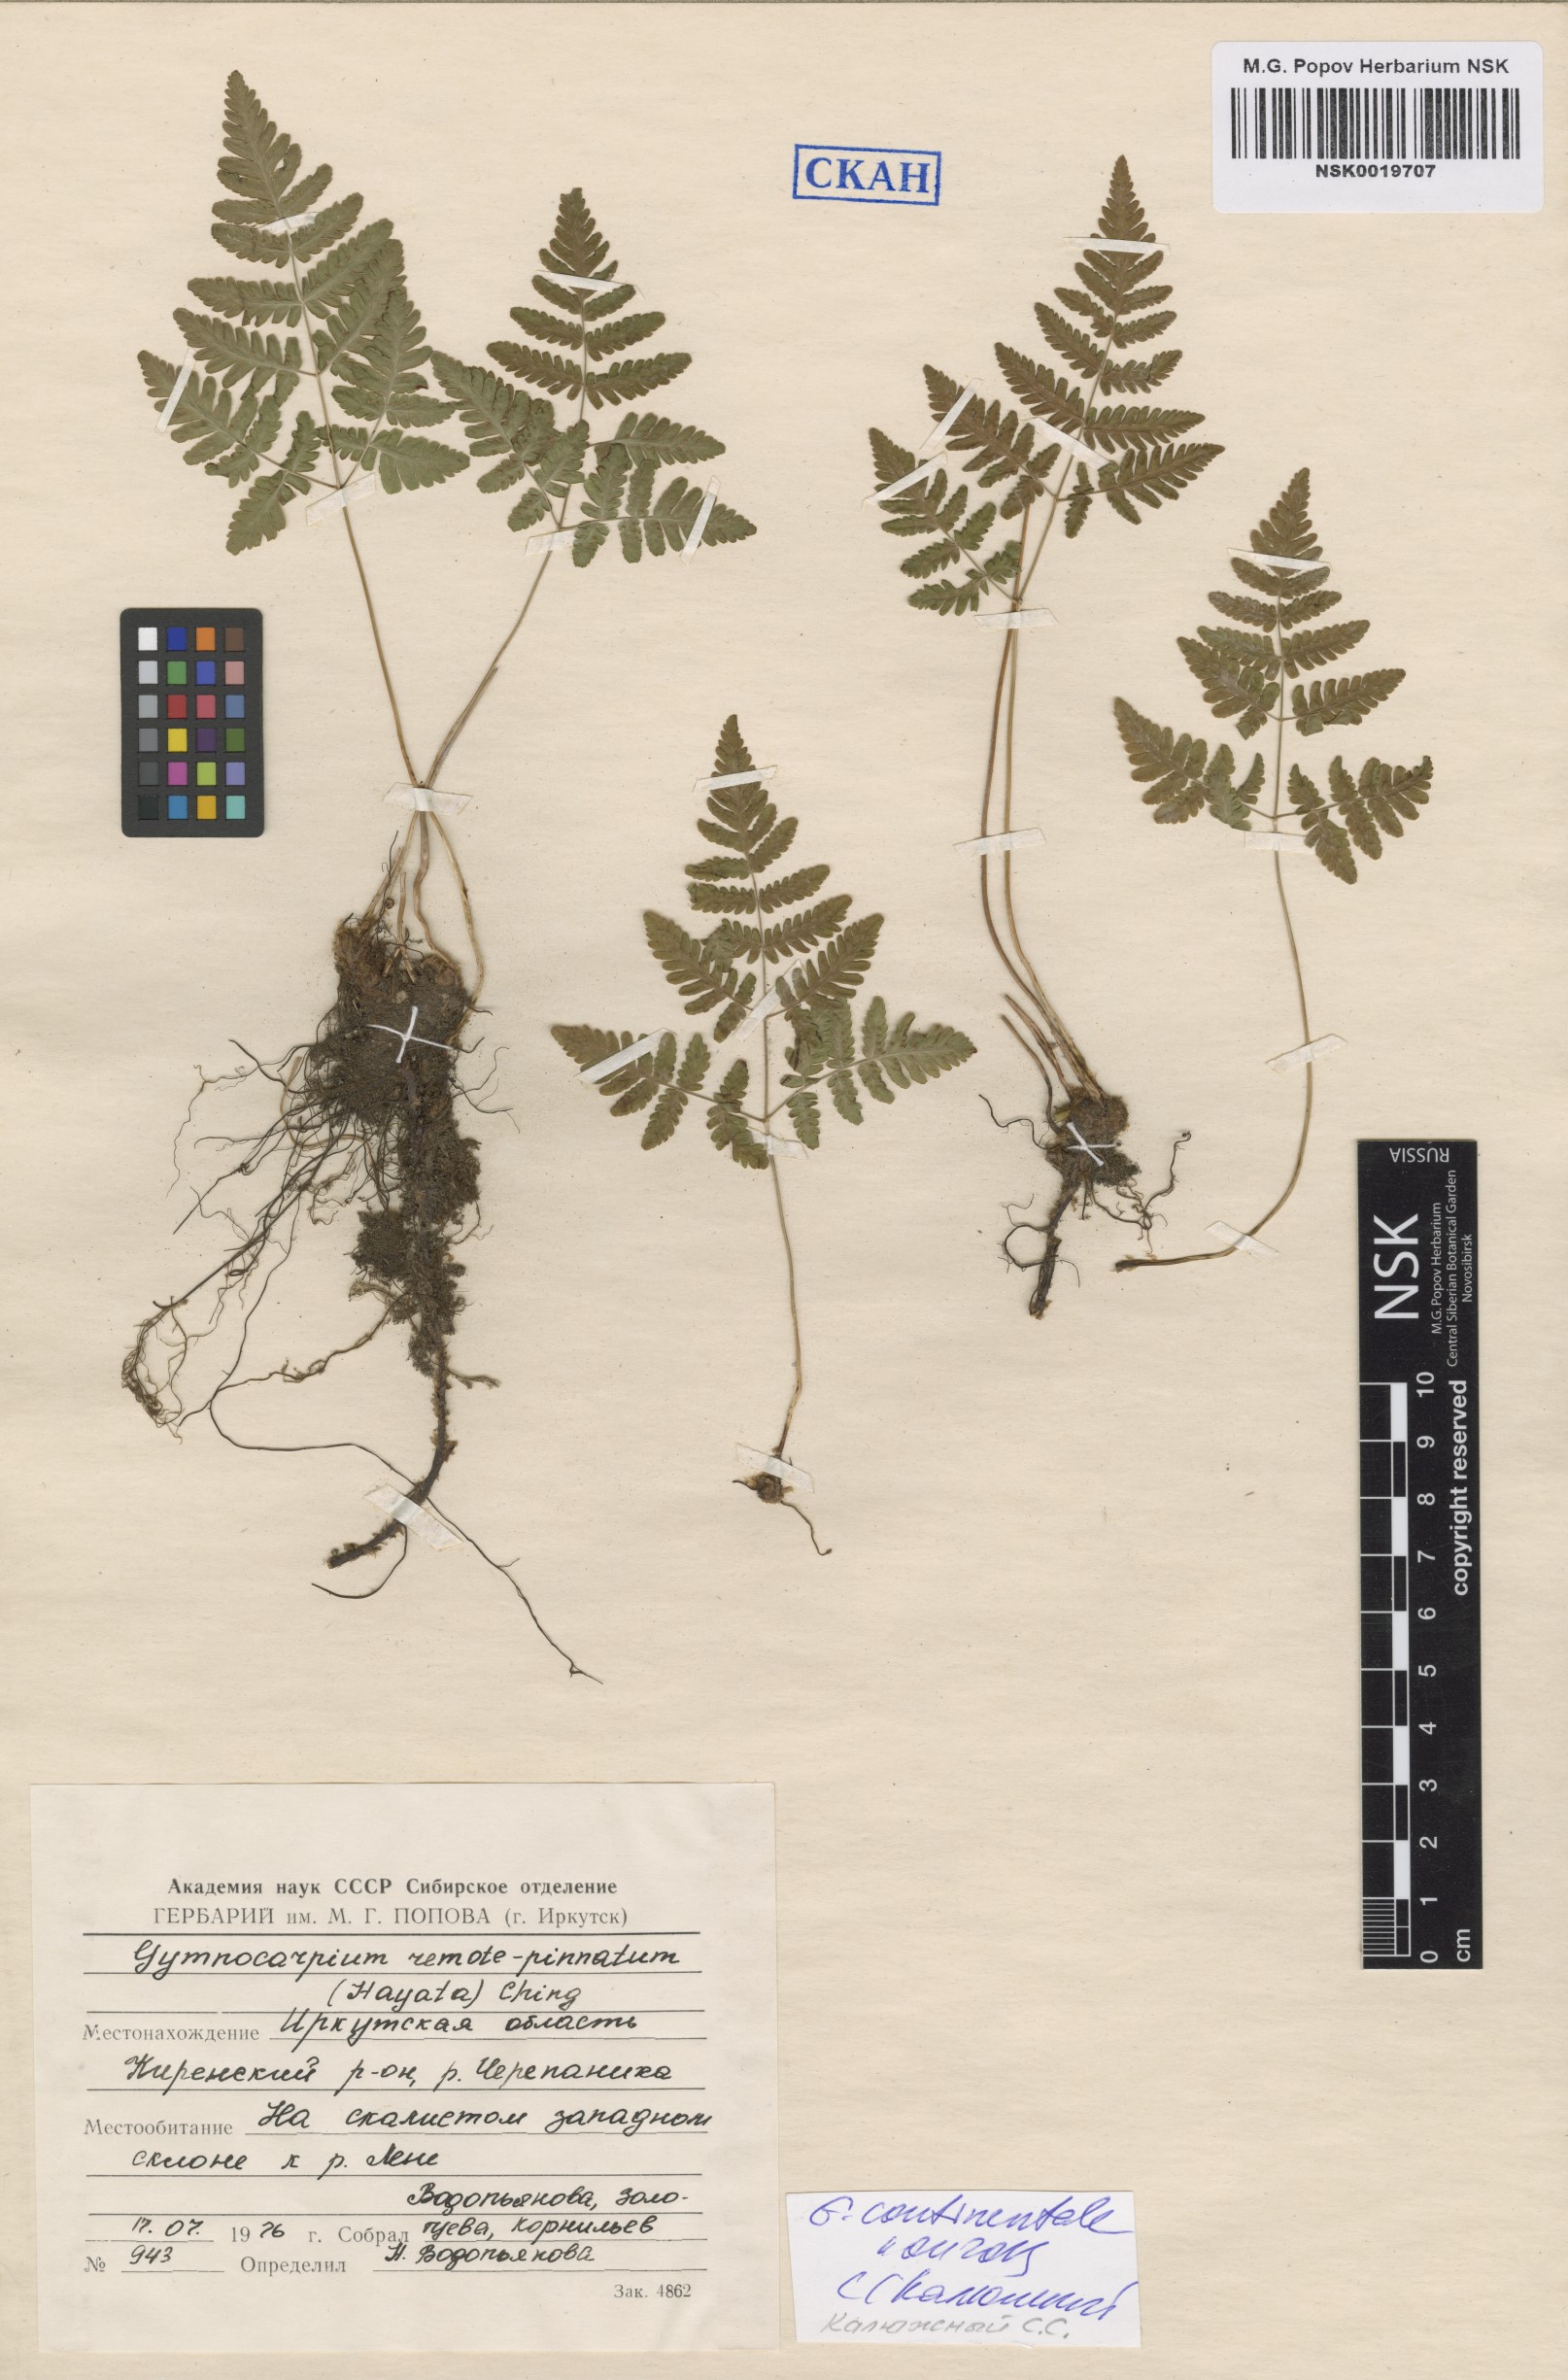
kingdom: Plantae
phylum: Tracheophyta
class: Polypodiopsida
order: Polypodiales
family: Cystopteridaceae
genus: Gymnocarpium
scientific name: Gymnocarpium continentale
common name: Asian oak fern
